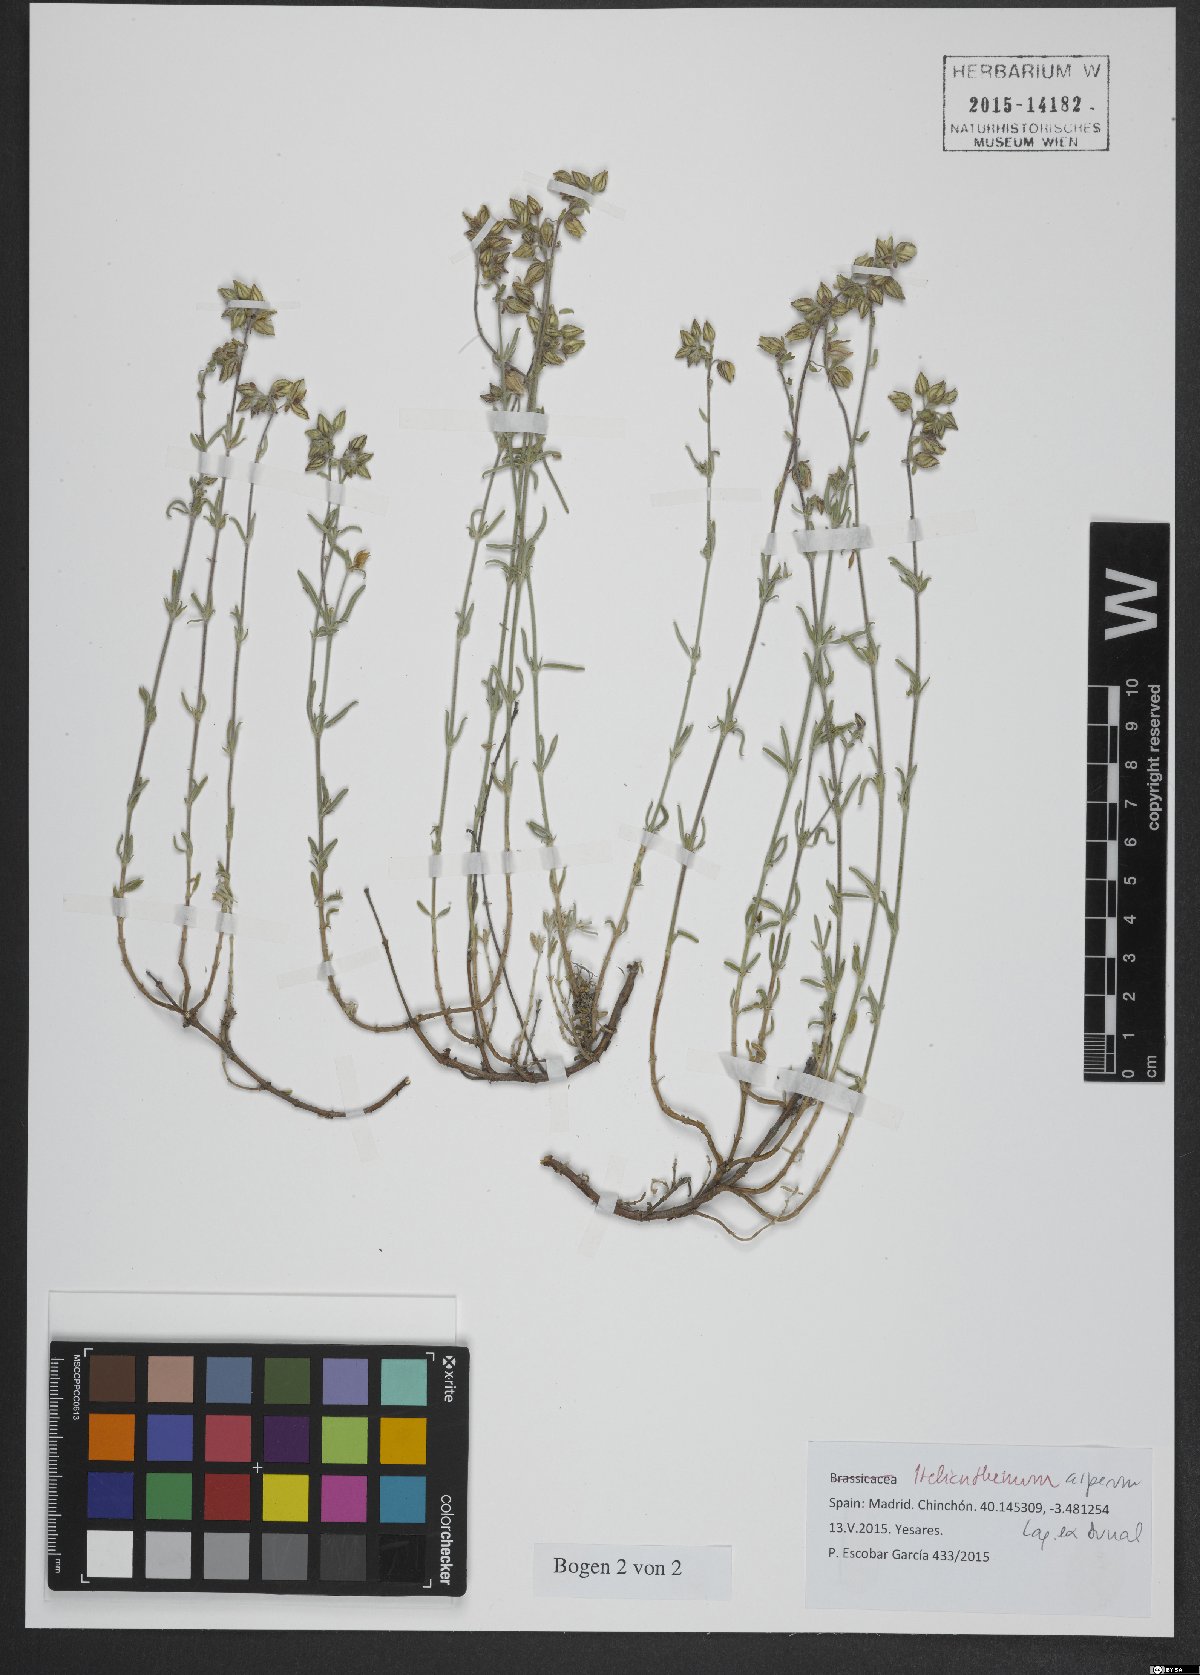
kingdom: Plantae
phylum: Tracheophyta
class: Magnoliopsida
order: Malvales
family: Cistaceae
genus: Helianthemum
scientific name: Helianthemum asperum
